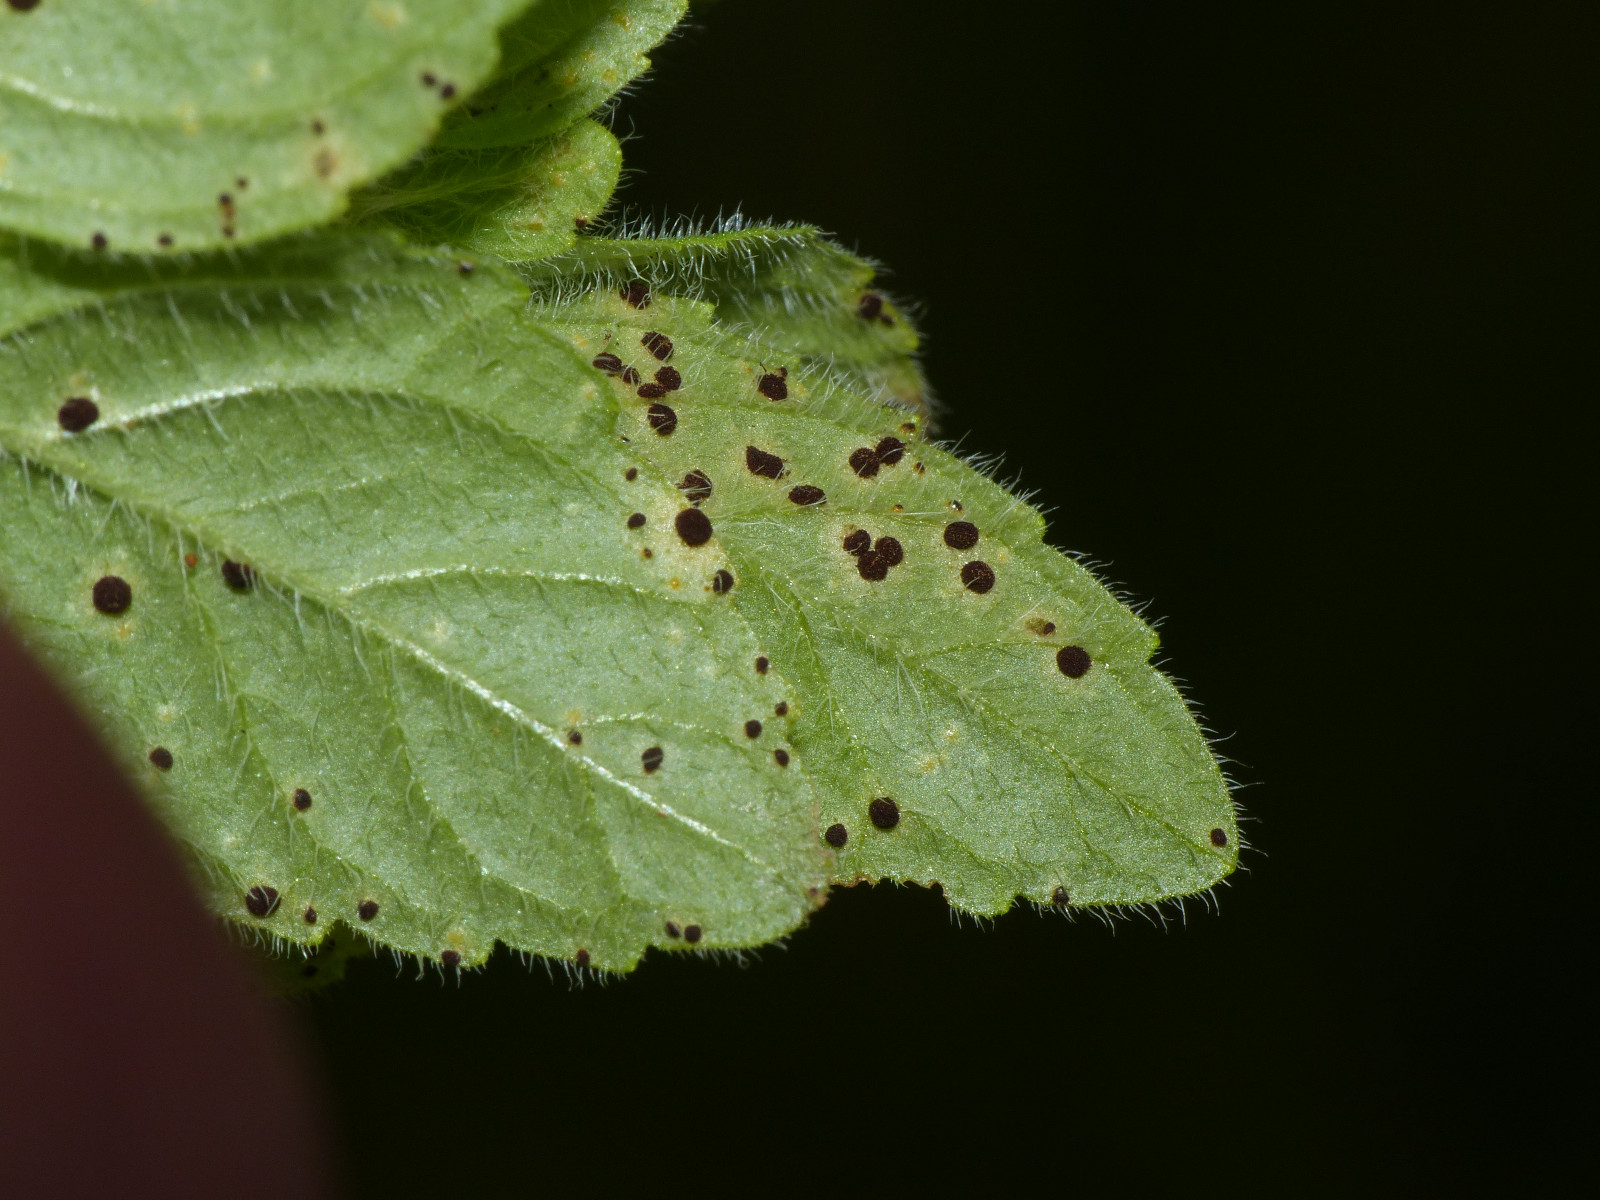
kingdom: Fungi
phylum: Basidiomycota
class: Pucciniomycetes
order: Pucciniales
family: Pucciniaceae
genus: Puccinia
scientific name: Puccinia menthae
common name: Mint rust
